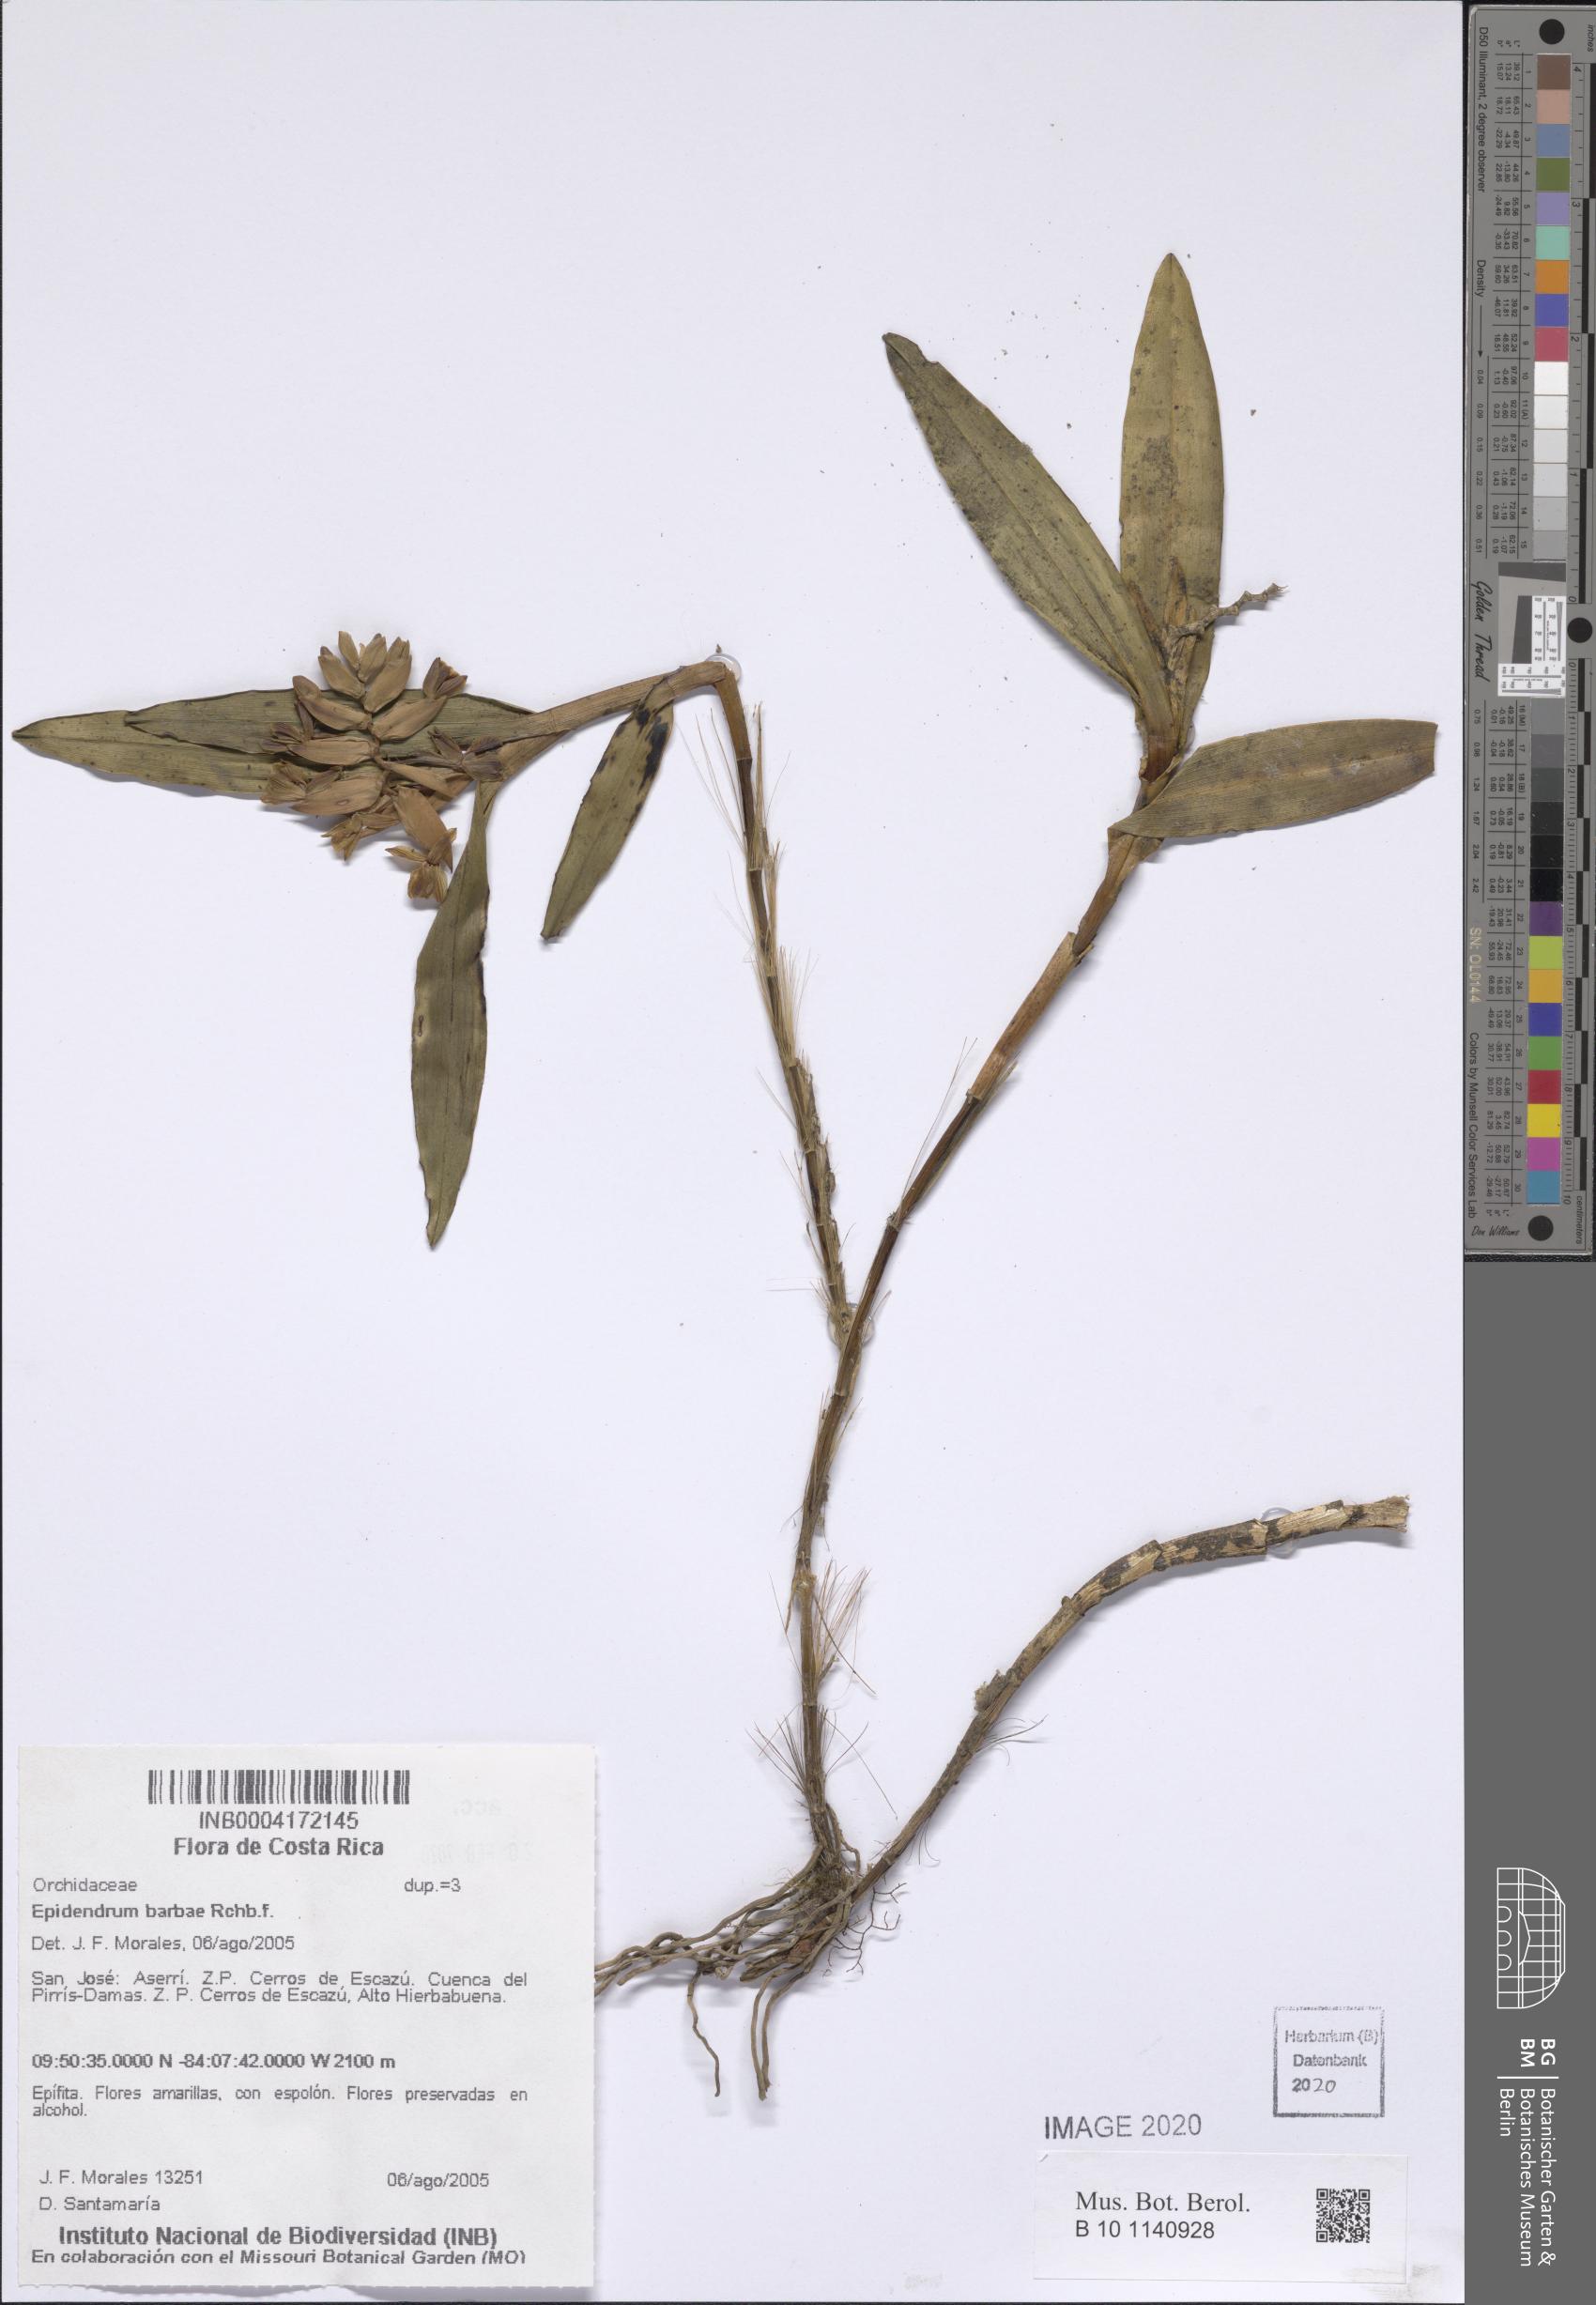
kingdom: Plantae
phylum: Tracheophyta
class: Liliopsida
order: Asparagales
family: Orchidaceae
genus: Epidendrum
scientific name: Epidendrum barbae
